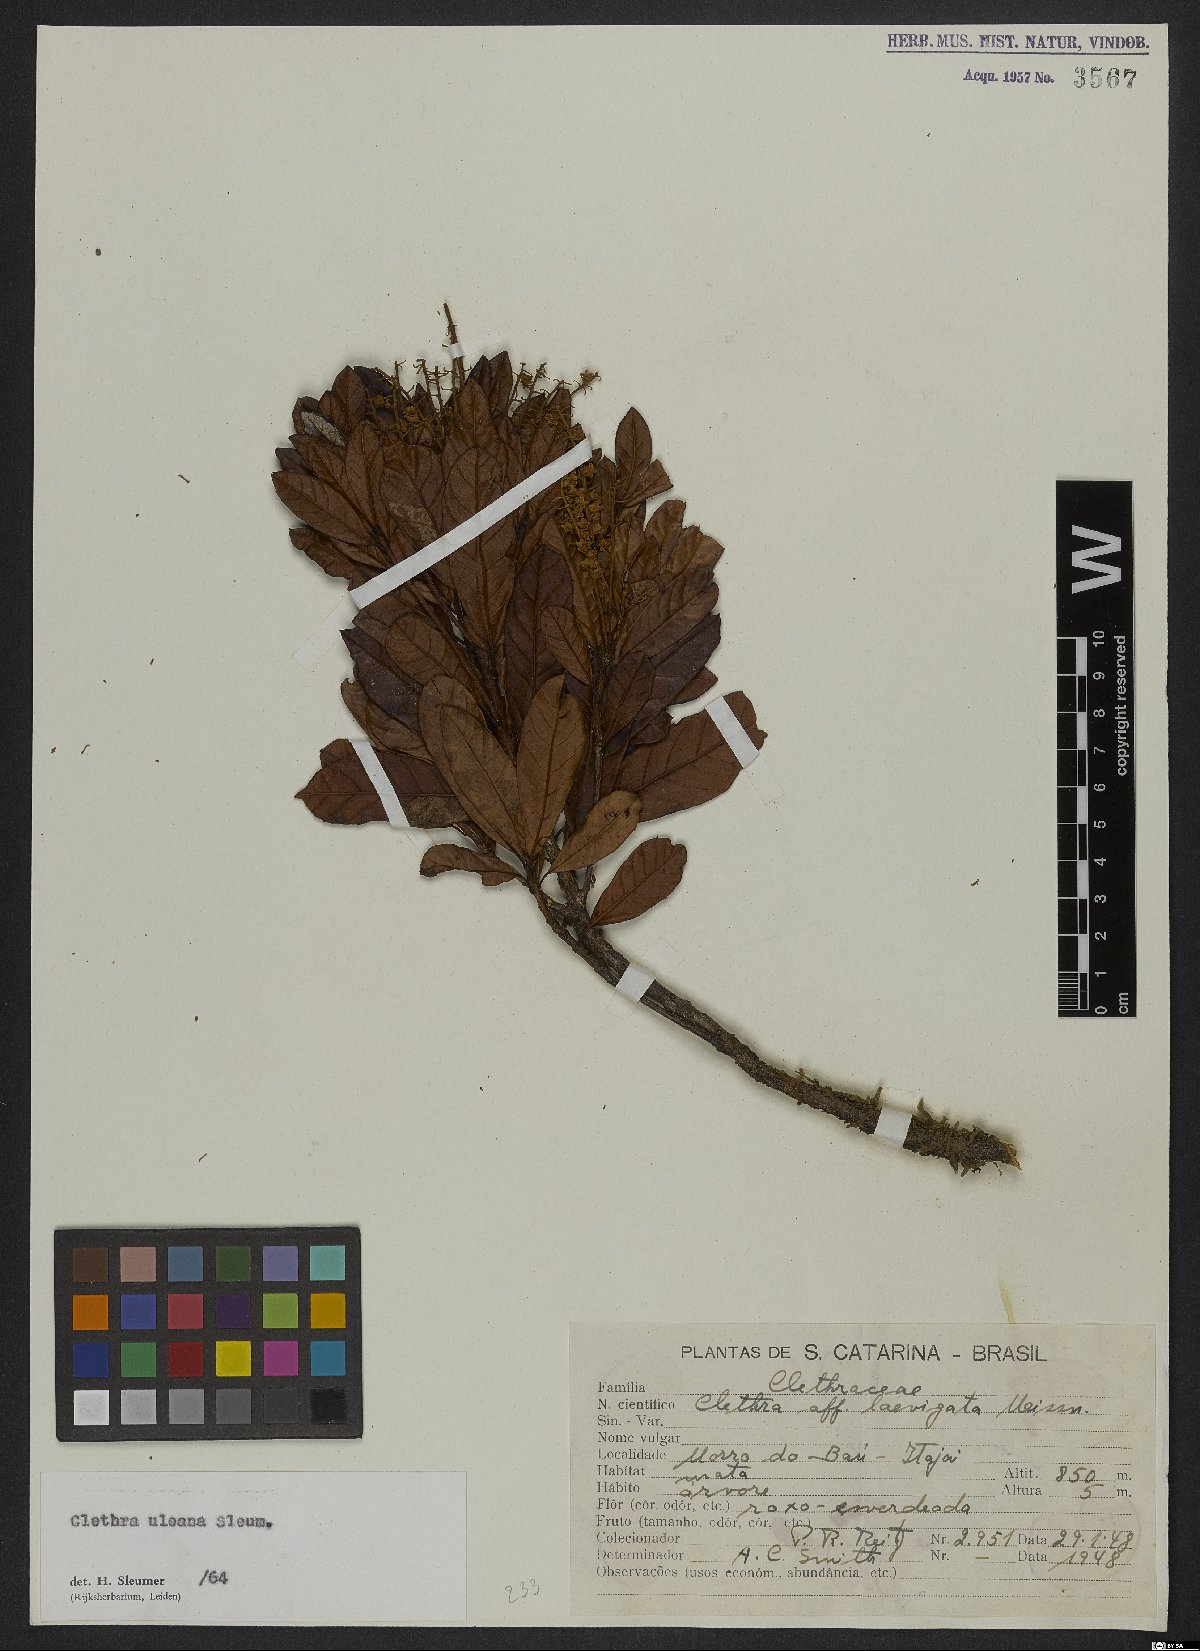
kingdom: Plantae
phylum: Tracheophyta
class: Magnoliopsida
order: Ericales
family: Clethraceae
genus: Clethra
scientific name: Clethra uleana
